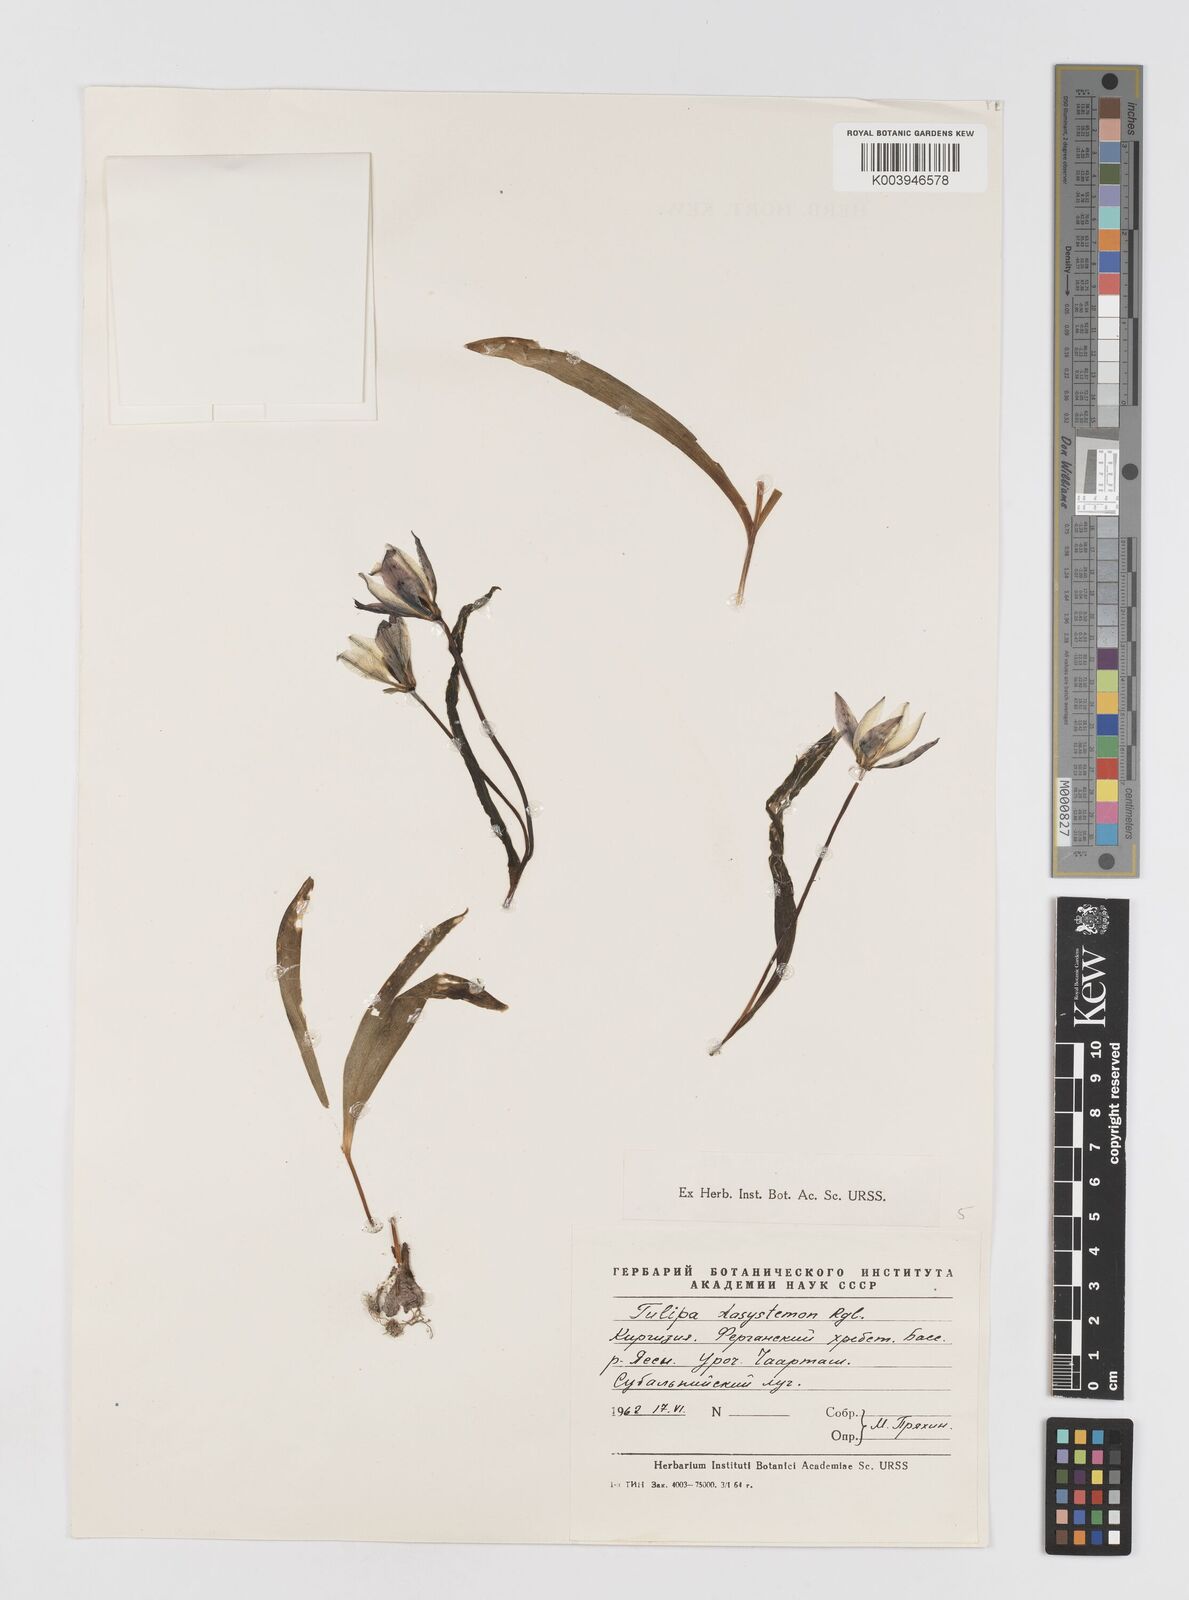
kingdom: Plantae
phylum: Tracheophyta
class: Liliopsida
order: Liliales
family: Liliaceae
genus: Tulipa
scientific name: Tulipa dasystemon
